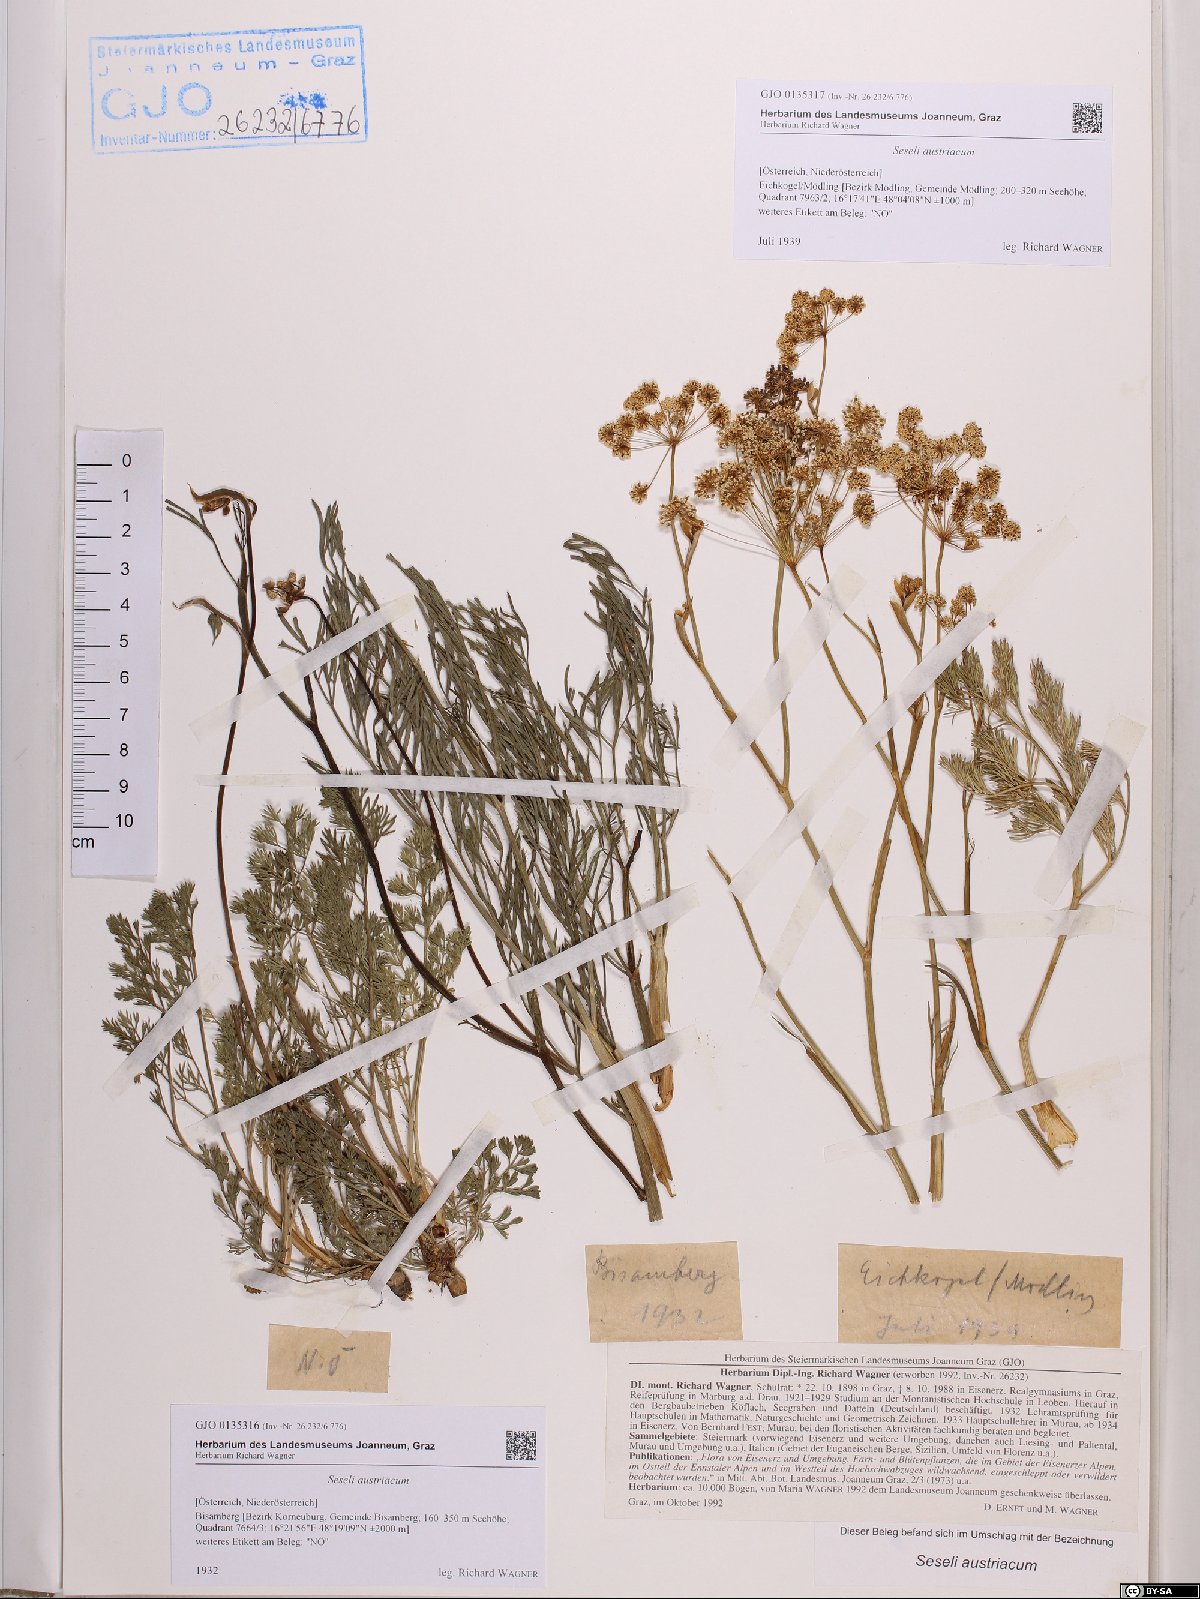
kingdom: Plantae
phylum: Tracheophyta
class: Magnoliopsida
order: Apiales
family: Apiaceae
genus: Seseli
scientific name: Seseli austriacum
